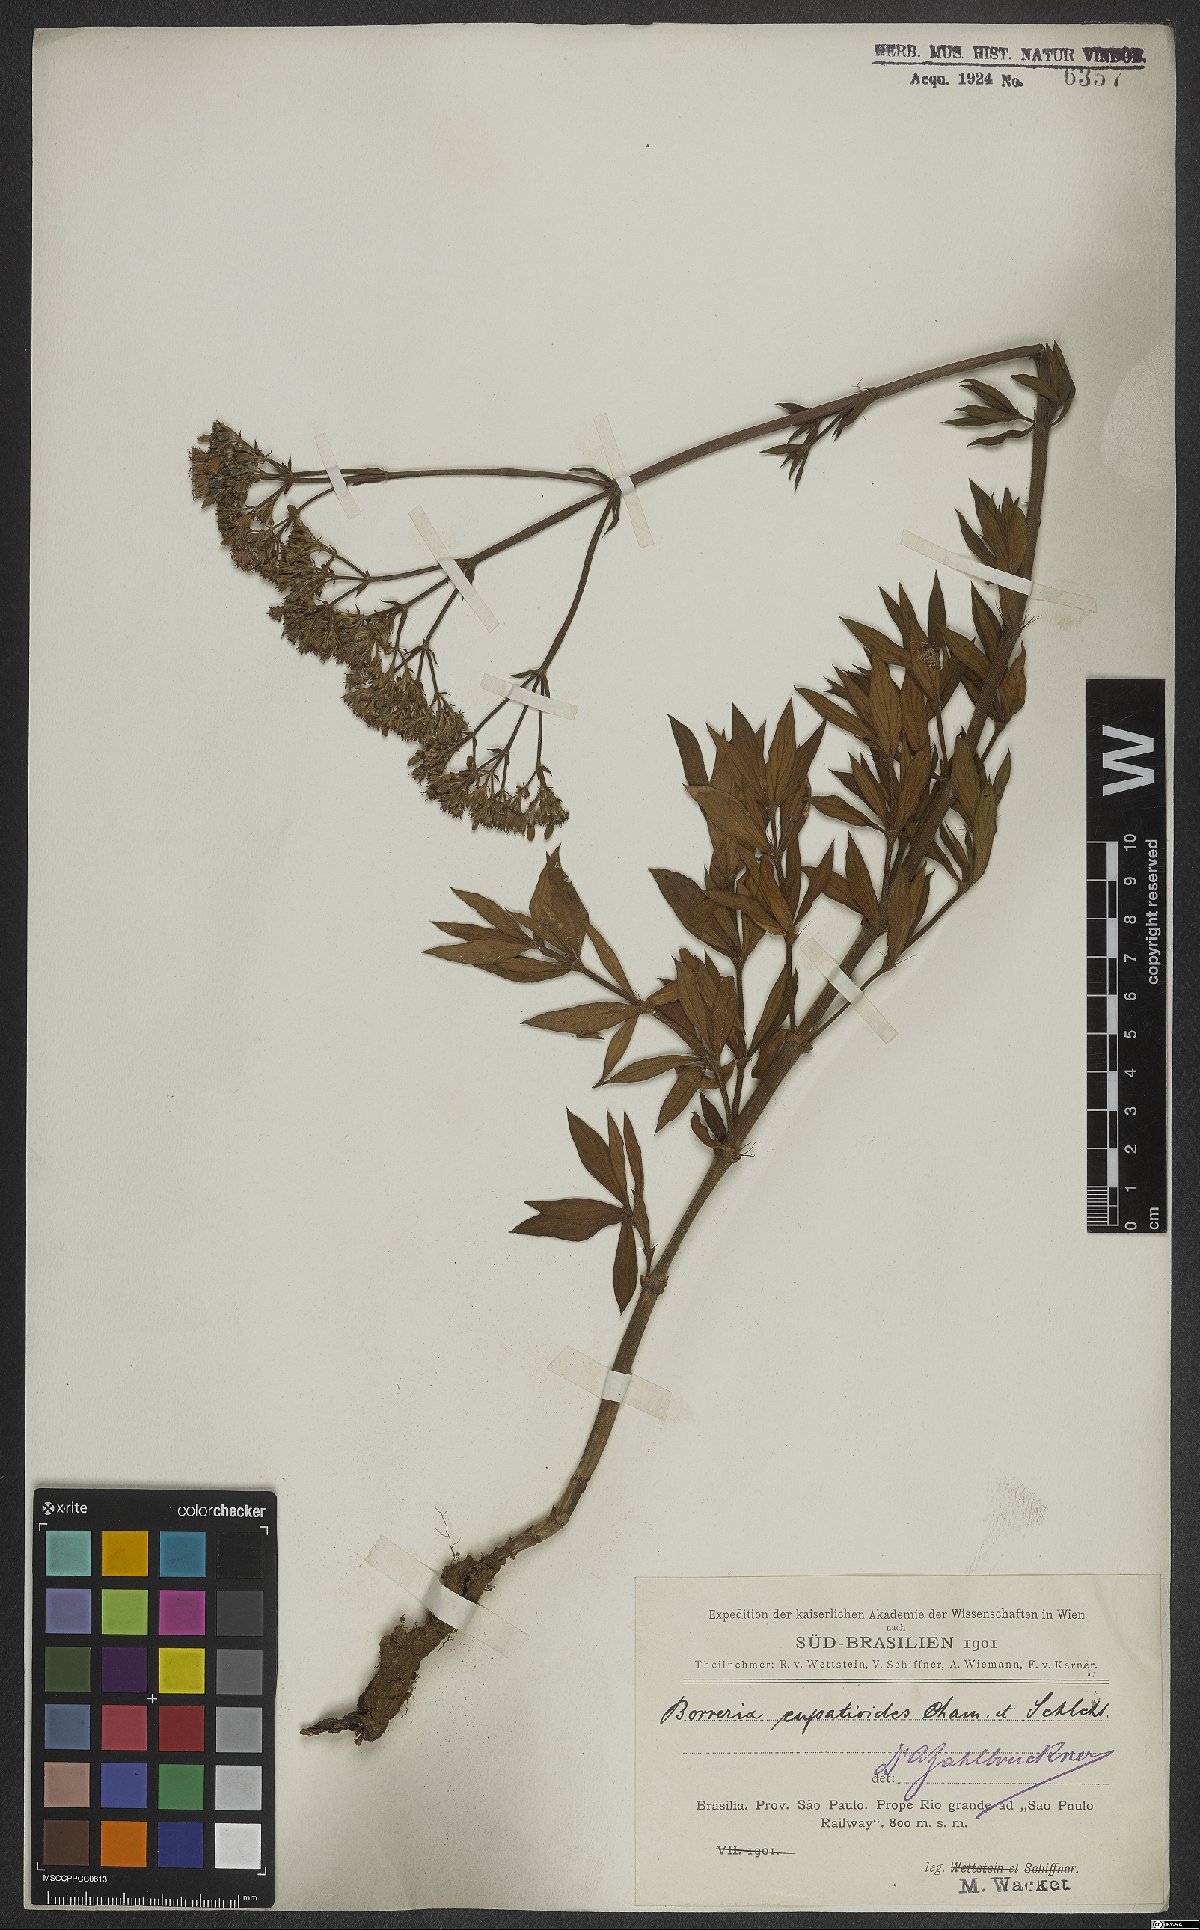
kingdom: Plantae
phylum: Tracheophyta
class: Magnoliopsida
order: Gentianales
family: Rubiaceae
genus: Galianthe
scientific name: Galianthe eupatorioides
